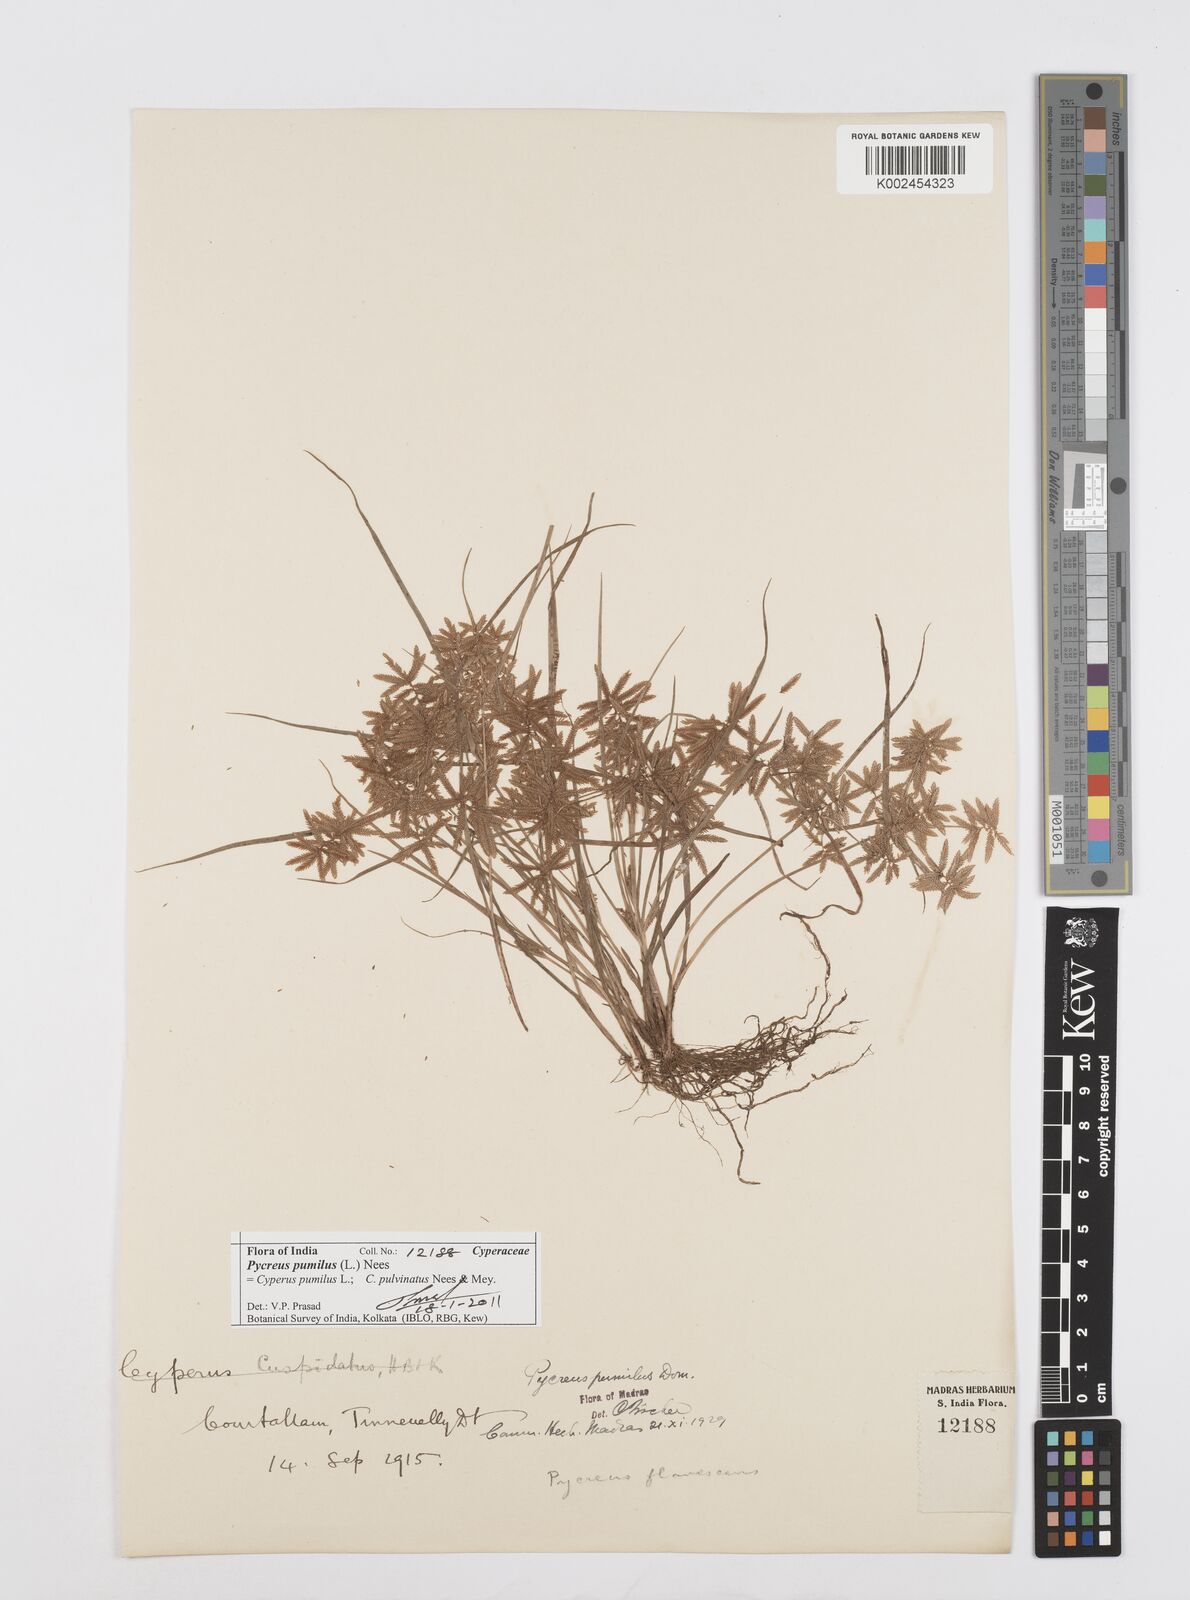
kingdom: Plantae
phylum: Tracheophyta
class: Liliopsida
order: Poales
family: Cyperaceae
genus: Cyperus
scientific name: Cyperus pumilus
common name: Low flatsedge
